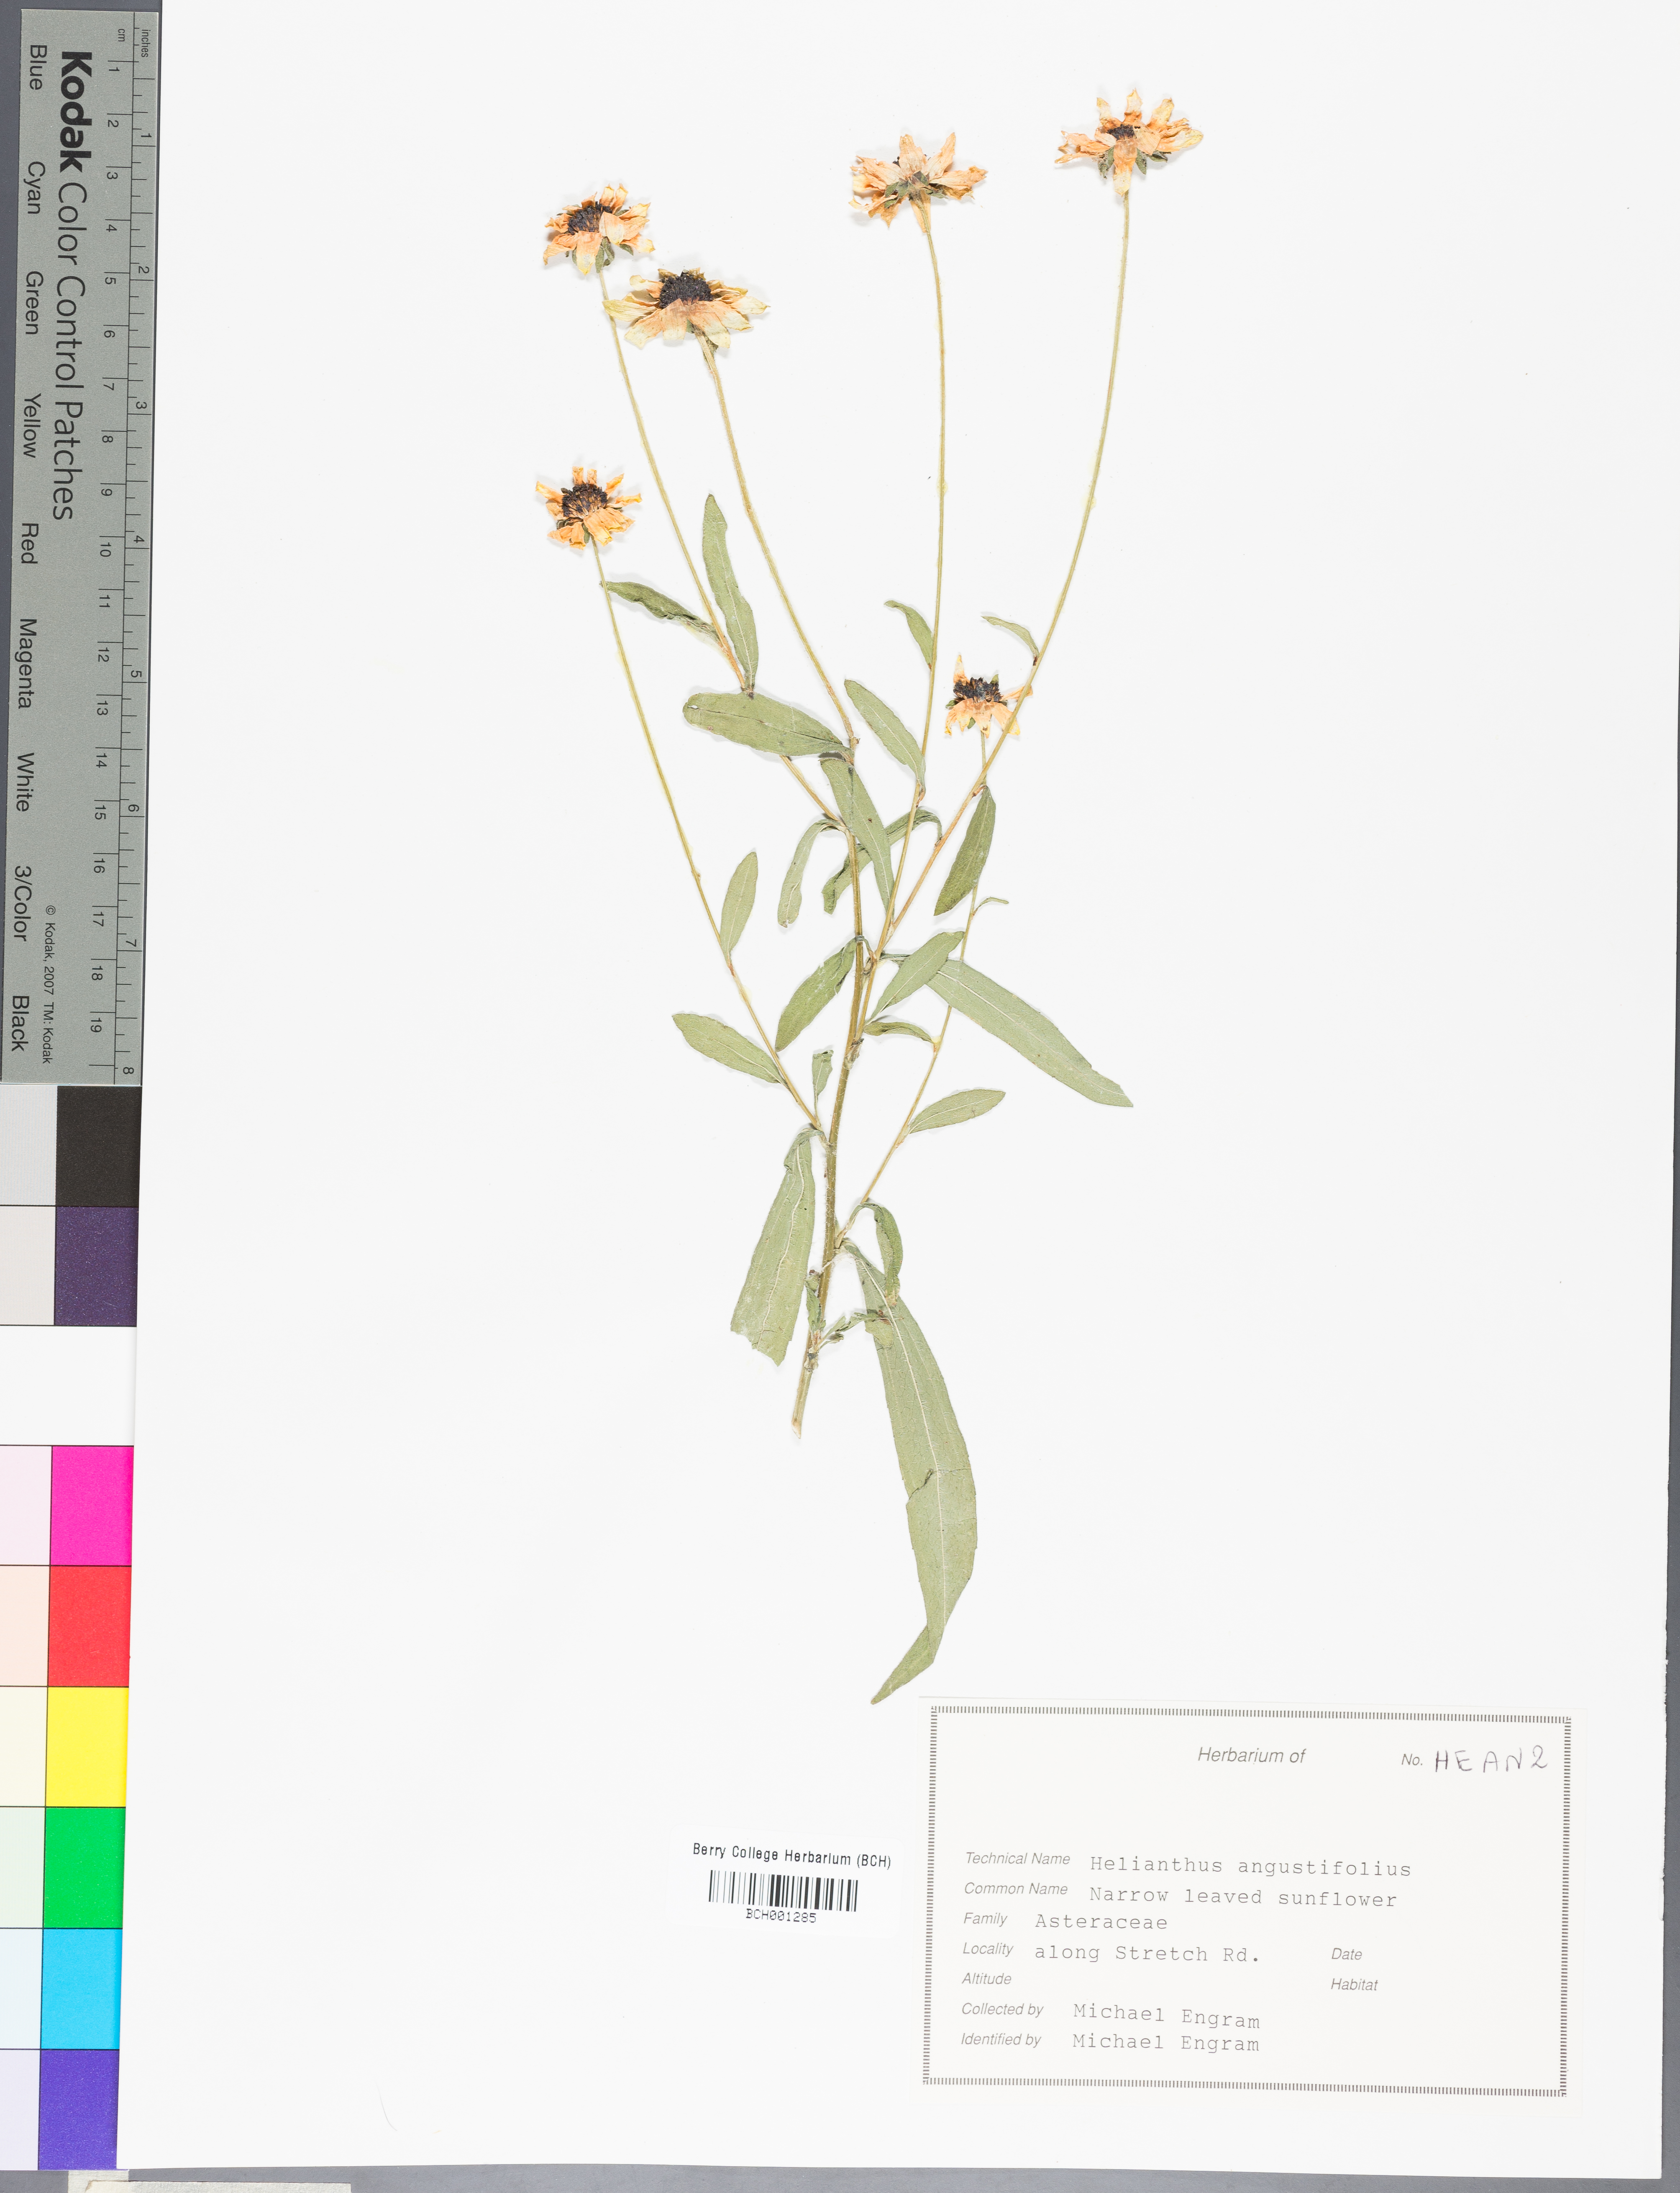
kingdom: Plantae
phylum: Tracheophyta
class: Magnoliopsida
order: Asterales
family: Asteraceae
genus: Tanacetum
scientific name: Tanacetum vulgare
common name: Common tansy
